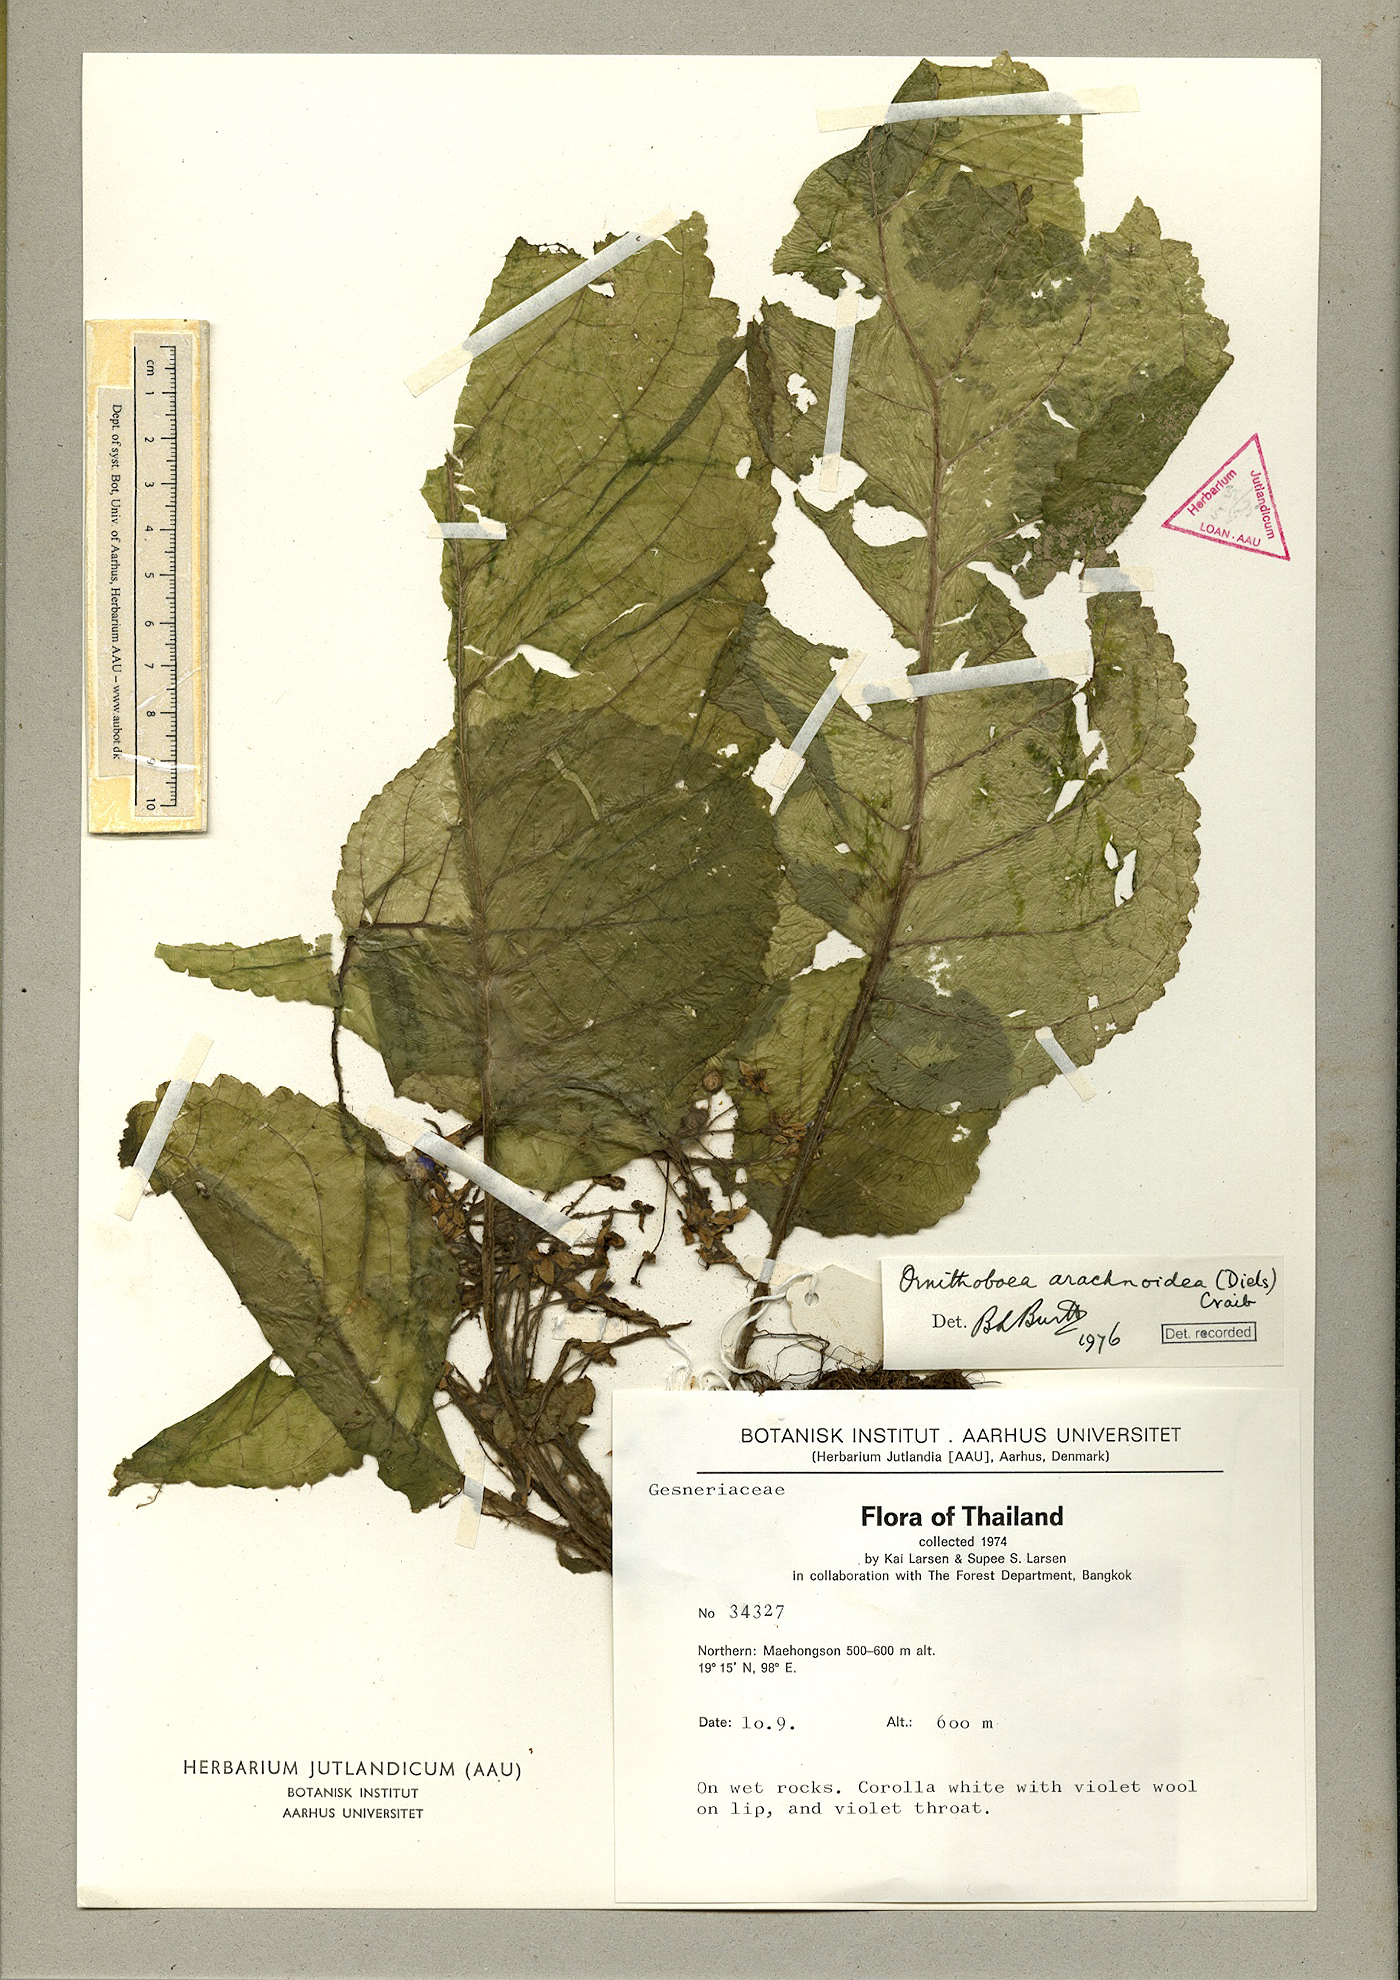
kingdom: Plantae
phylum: Tracheophyta
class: Magnoliopsida
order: Lamiales
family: Gesneriaceae
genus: Ornithoboea
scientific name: Ornithoboea arachnoidea
